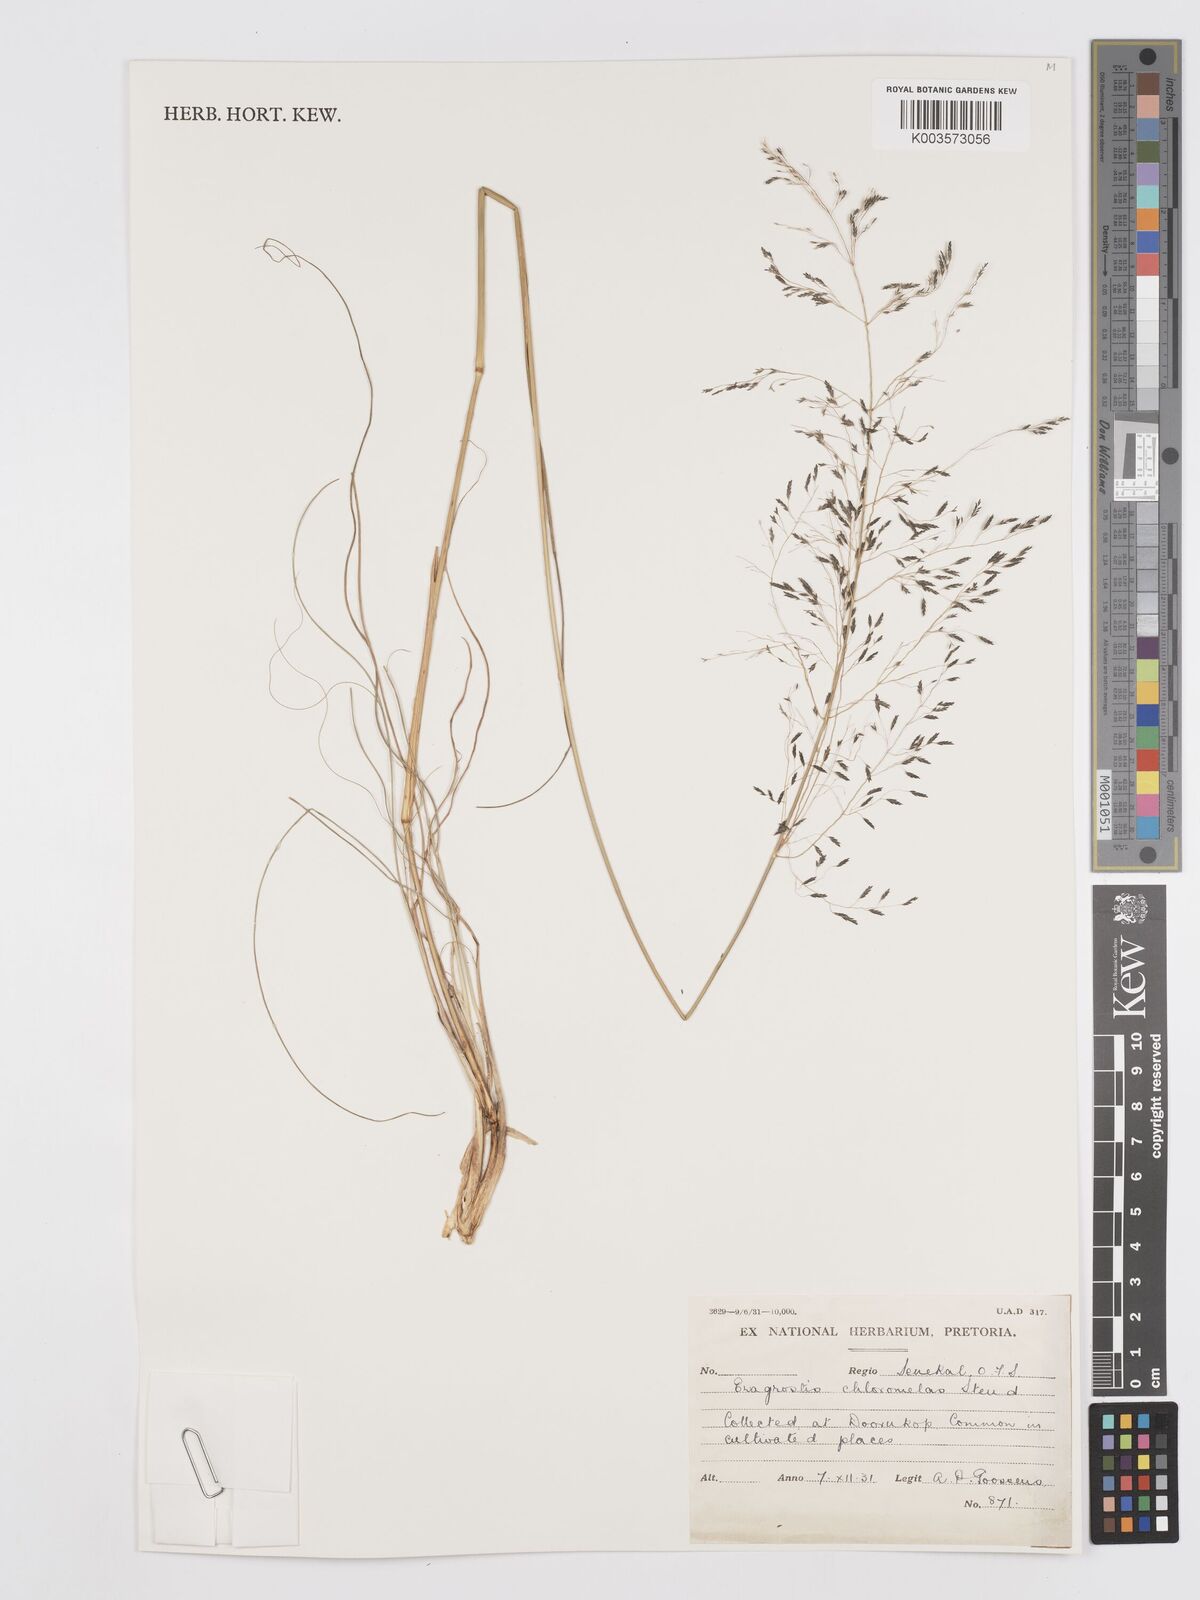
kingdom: Plantae
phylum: Tracheophyta
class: Liliopsida
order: Poales
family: Poaceae
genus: Eragrostis
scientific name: Eragrostis curvula
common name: African love-grass
